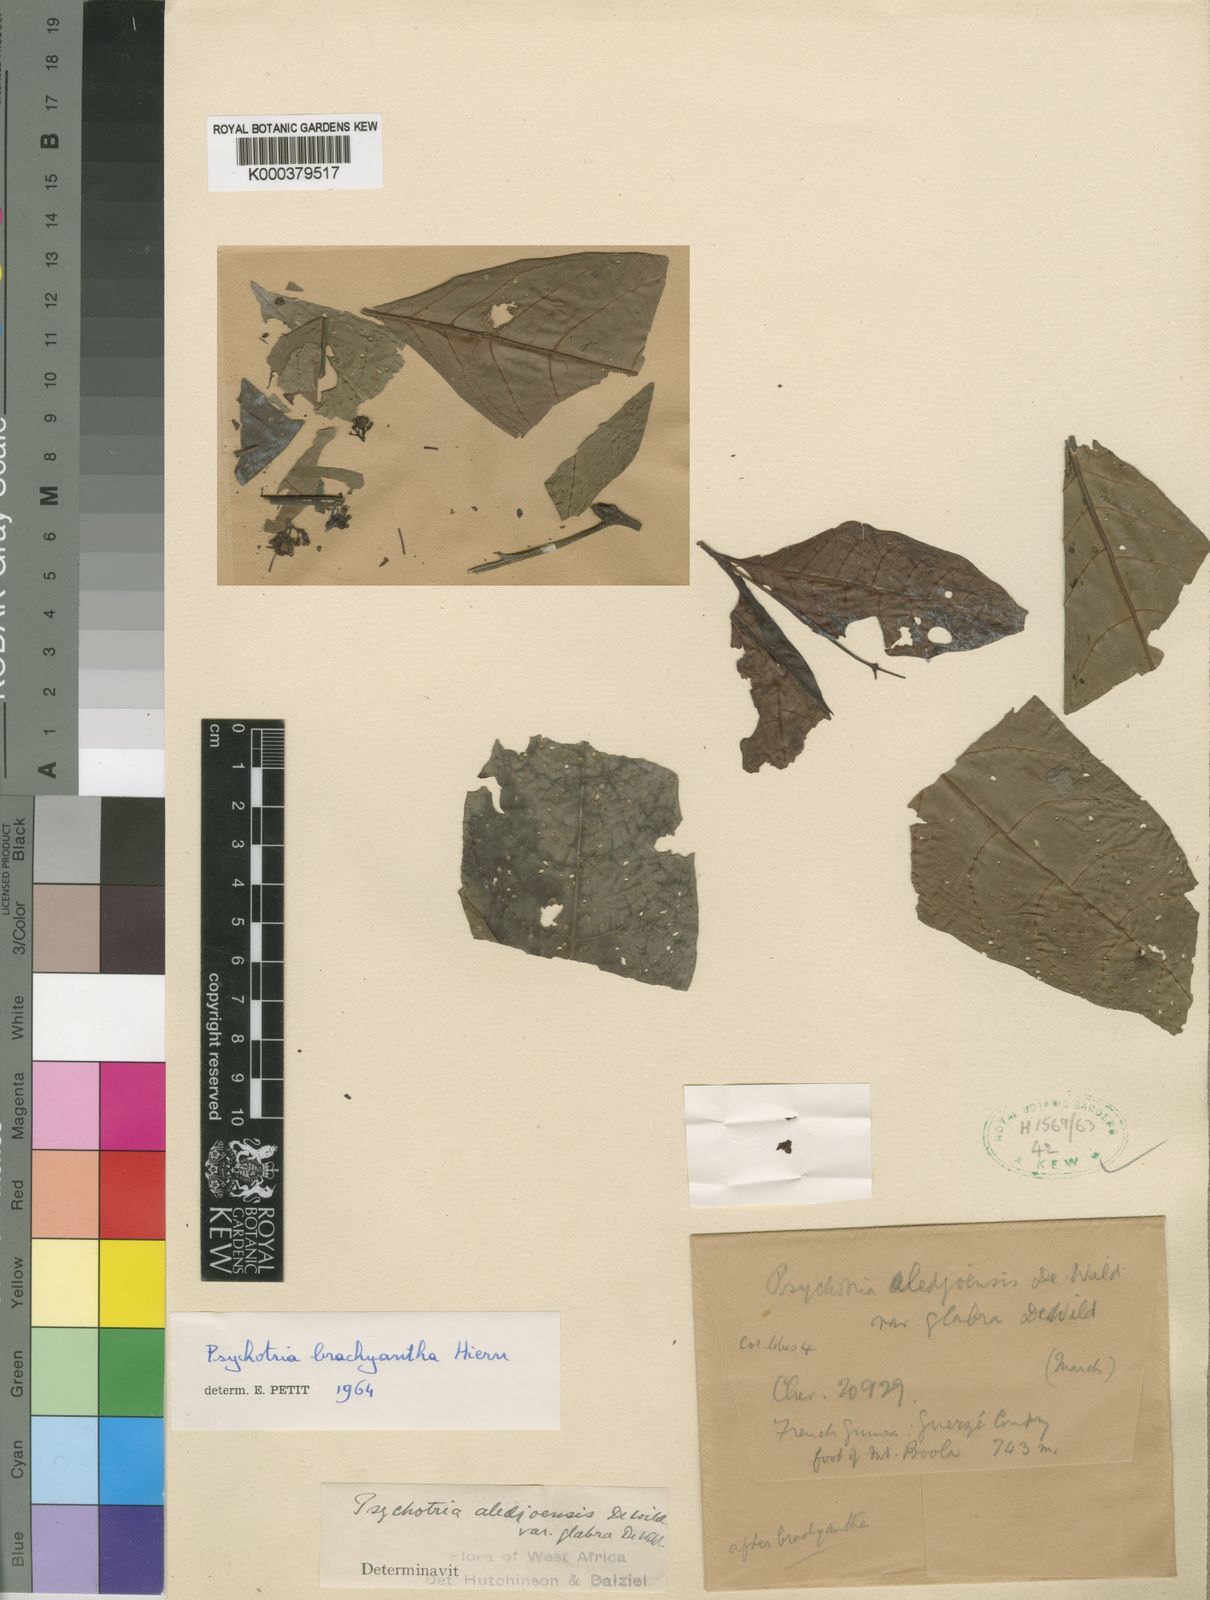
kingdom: Plantae
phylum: Tracheophyta
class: Magnoliopsida
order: Gentianales
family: Rubiaceae
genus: Psychotria
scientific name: Psychotria brachyantha
